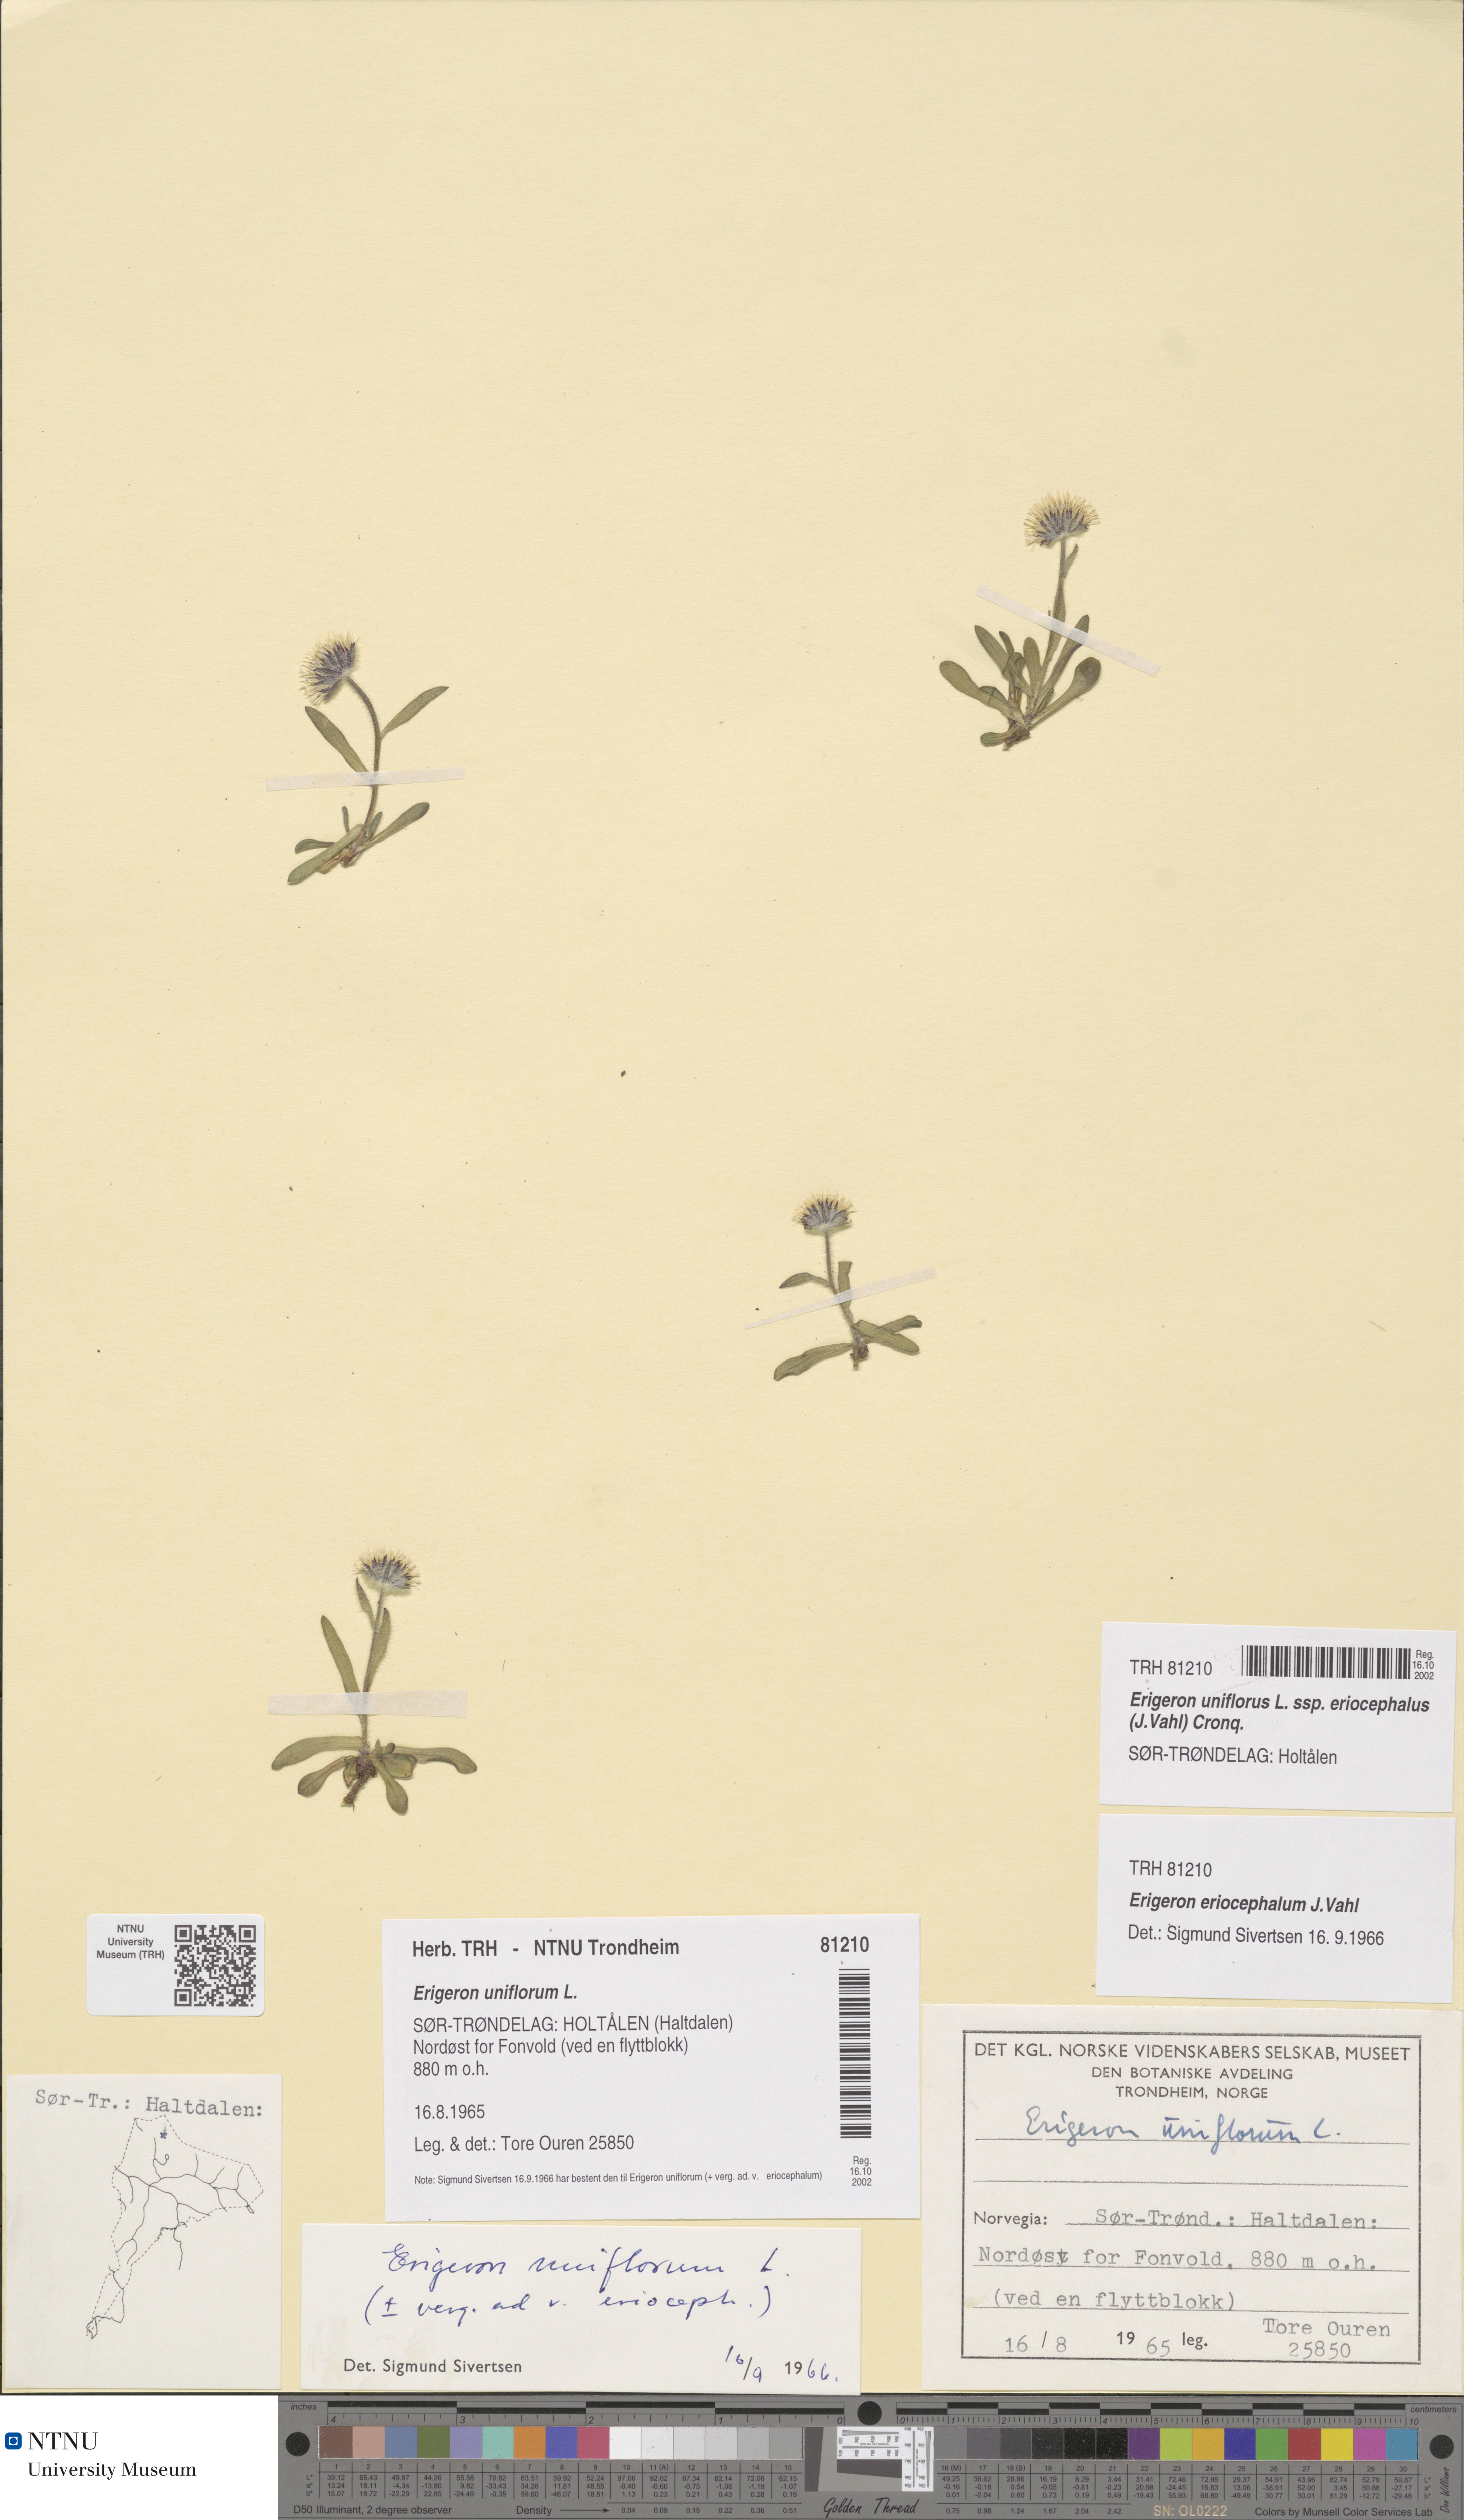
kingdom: Plantae
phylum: Tracheophyta
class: Magnoliopsida
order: Asterales
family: Asteraceae
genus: Erigeron
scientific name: Erigeron eriocephalus
